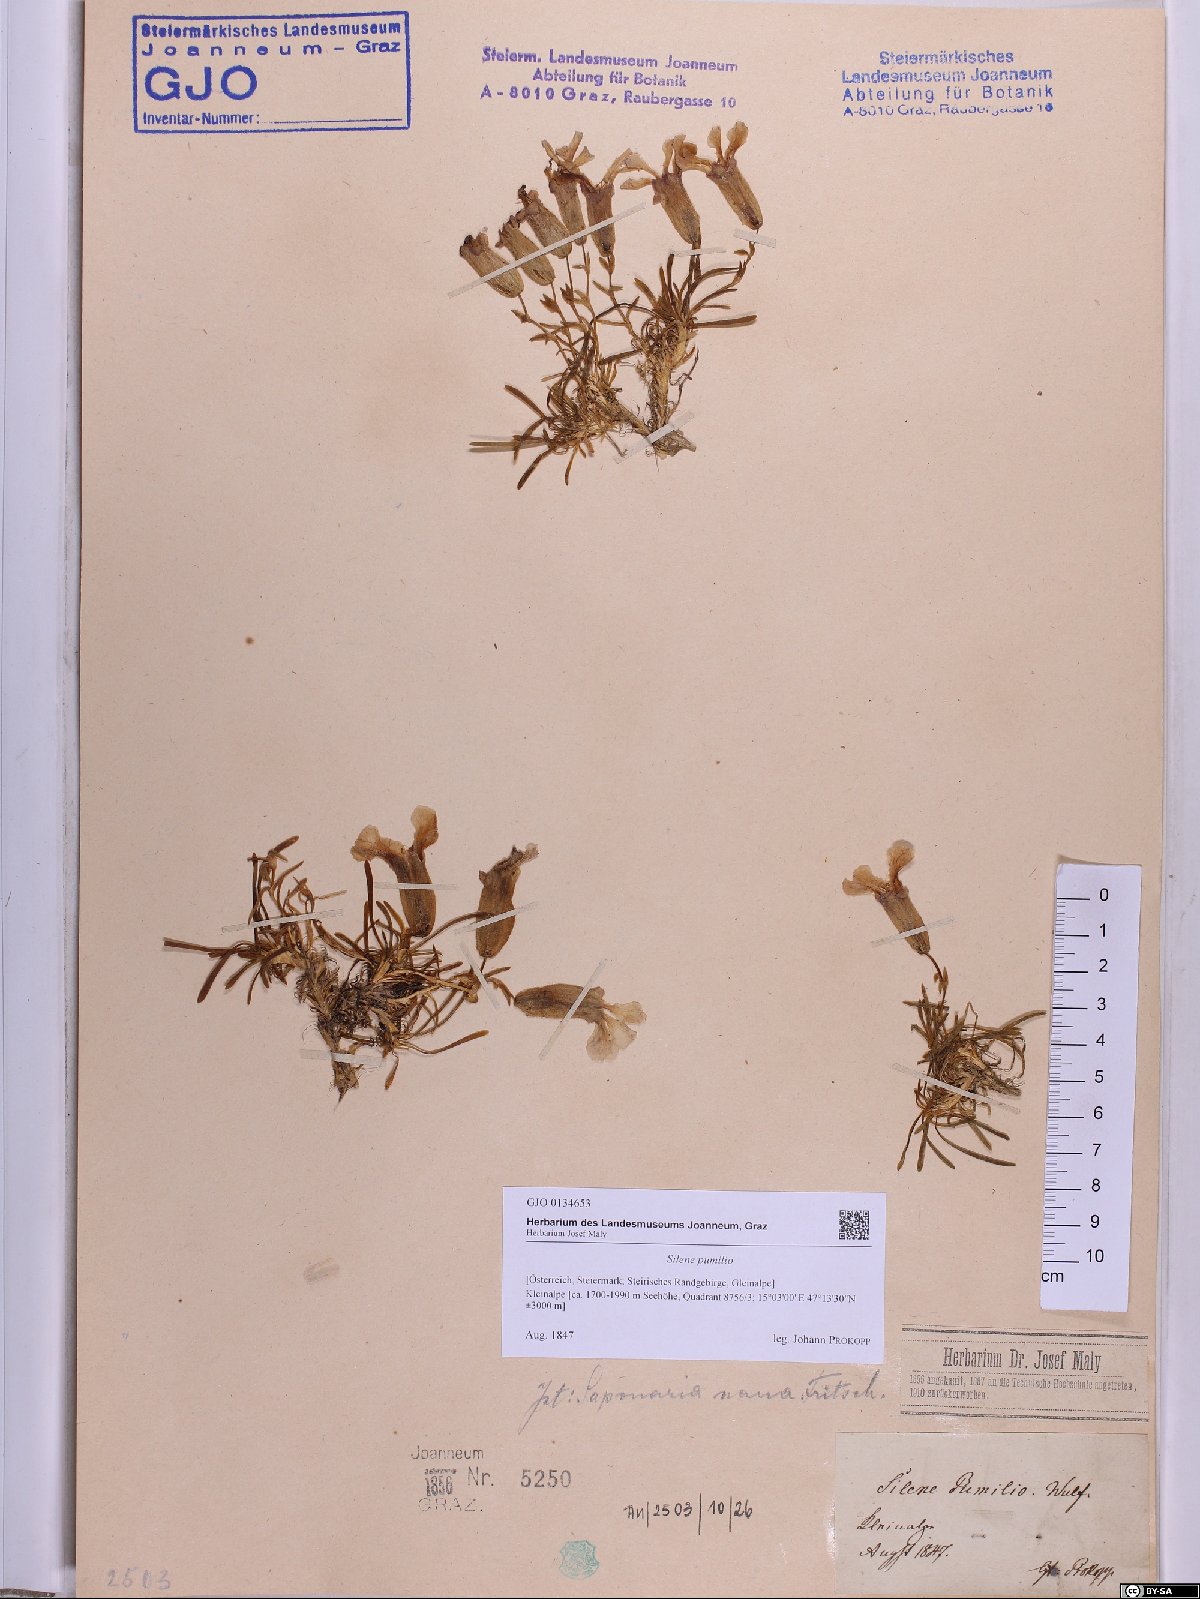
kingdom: Plantae
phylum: Tracheophyta
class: Magnoliopsida
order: Caryophyllales
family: Caryophyllaceae
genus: Saponaria
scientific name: Saponaria pumila
